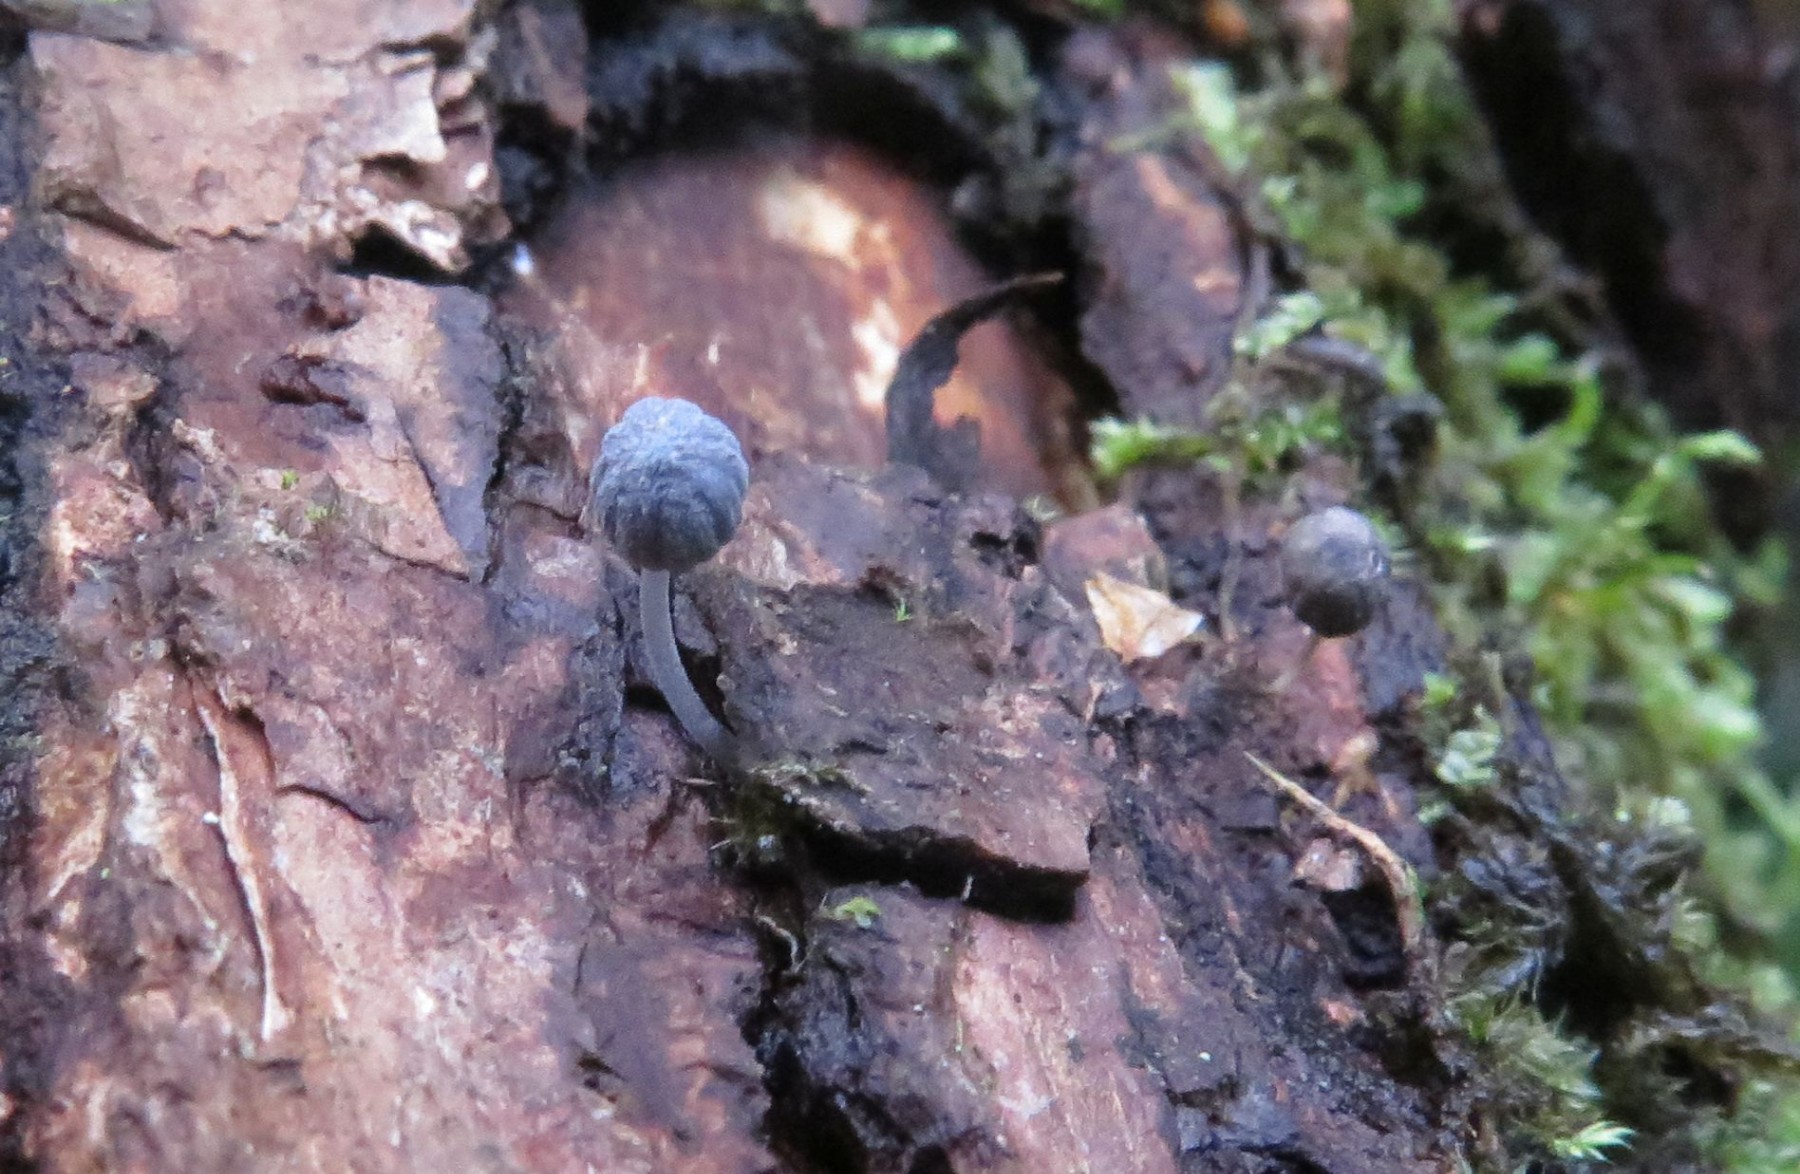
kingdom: Fungi
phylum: Basidiomycota
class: Agaricomycetes
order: Agaricales
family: Mycenaceae
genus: Mycena
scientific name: Mycena pseudocorticola
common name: gråblå bark-huesvamp
